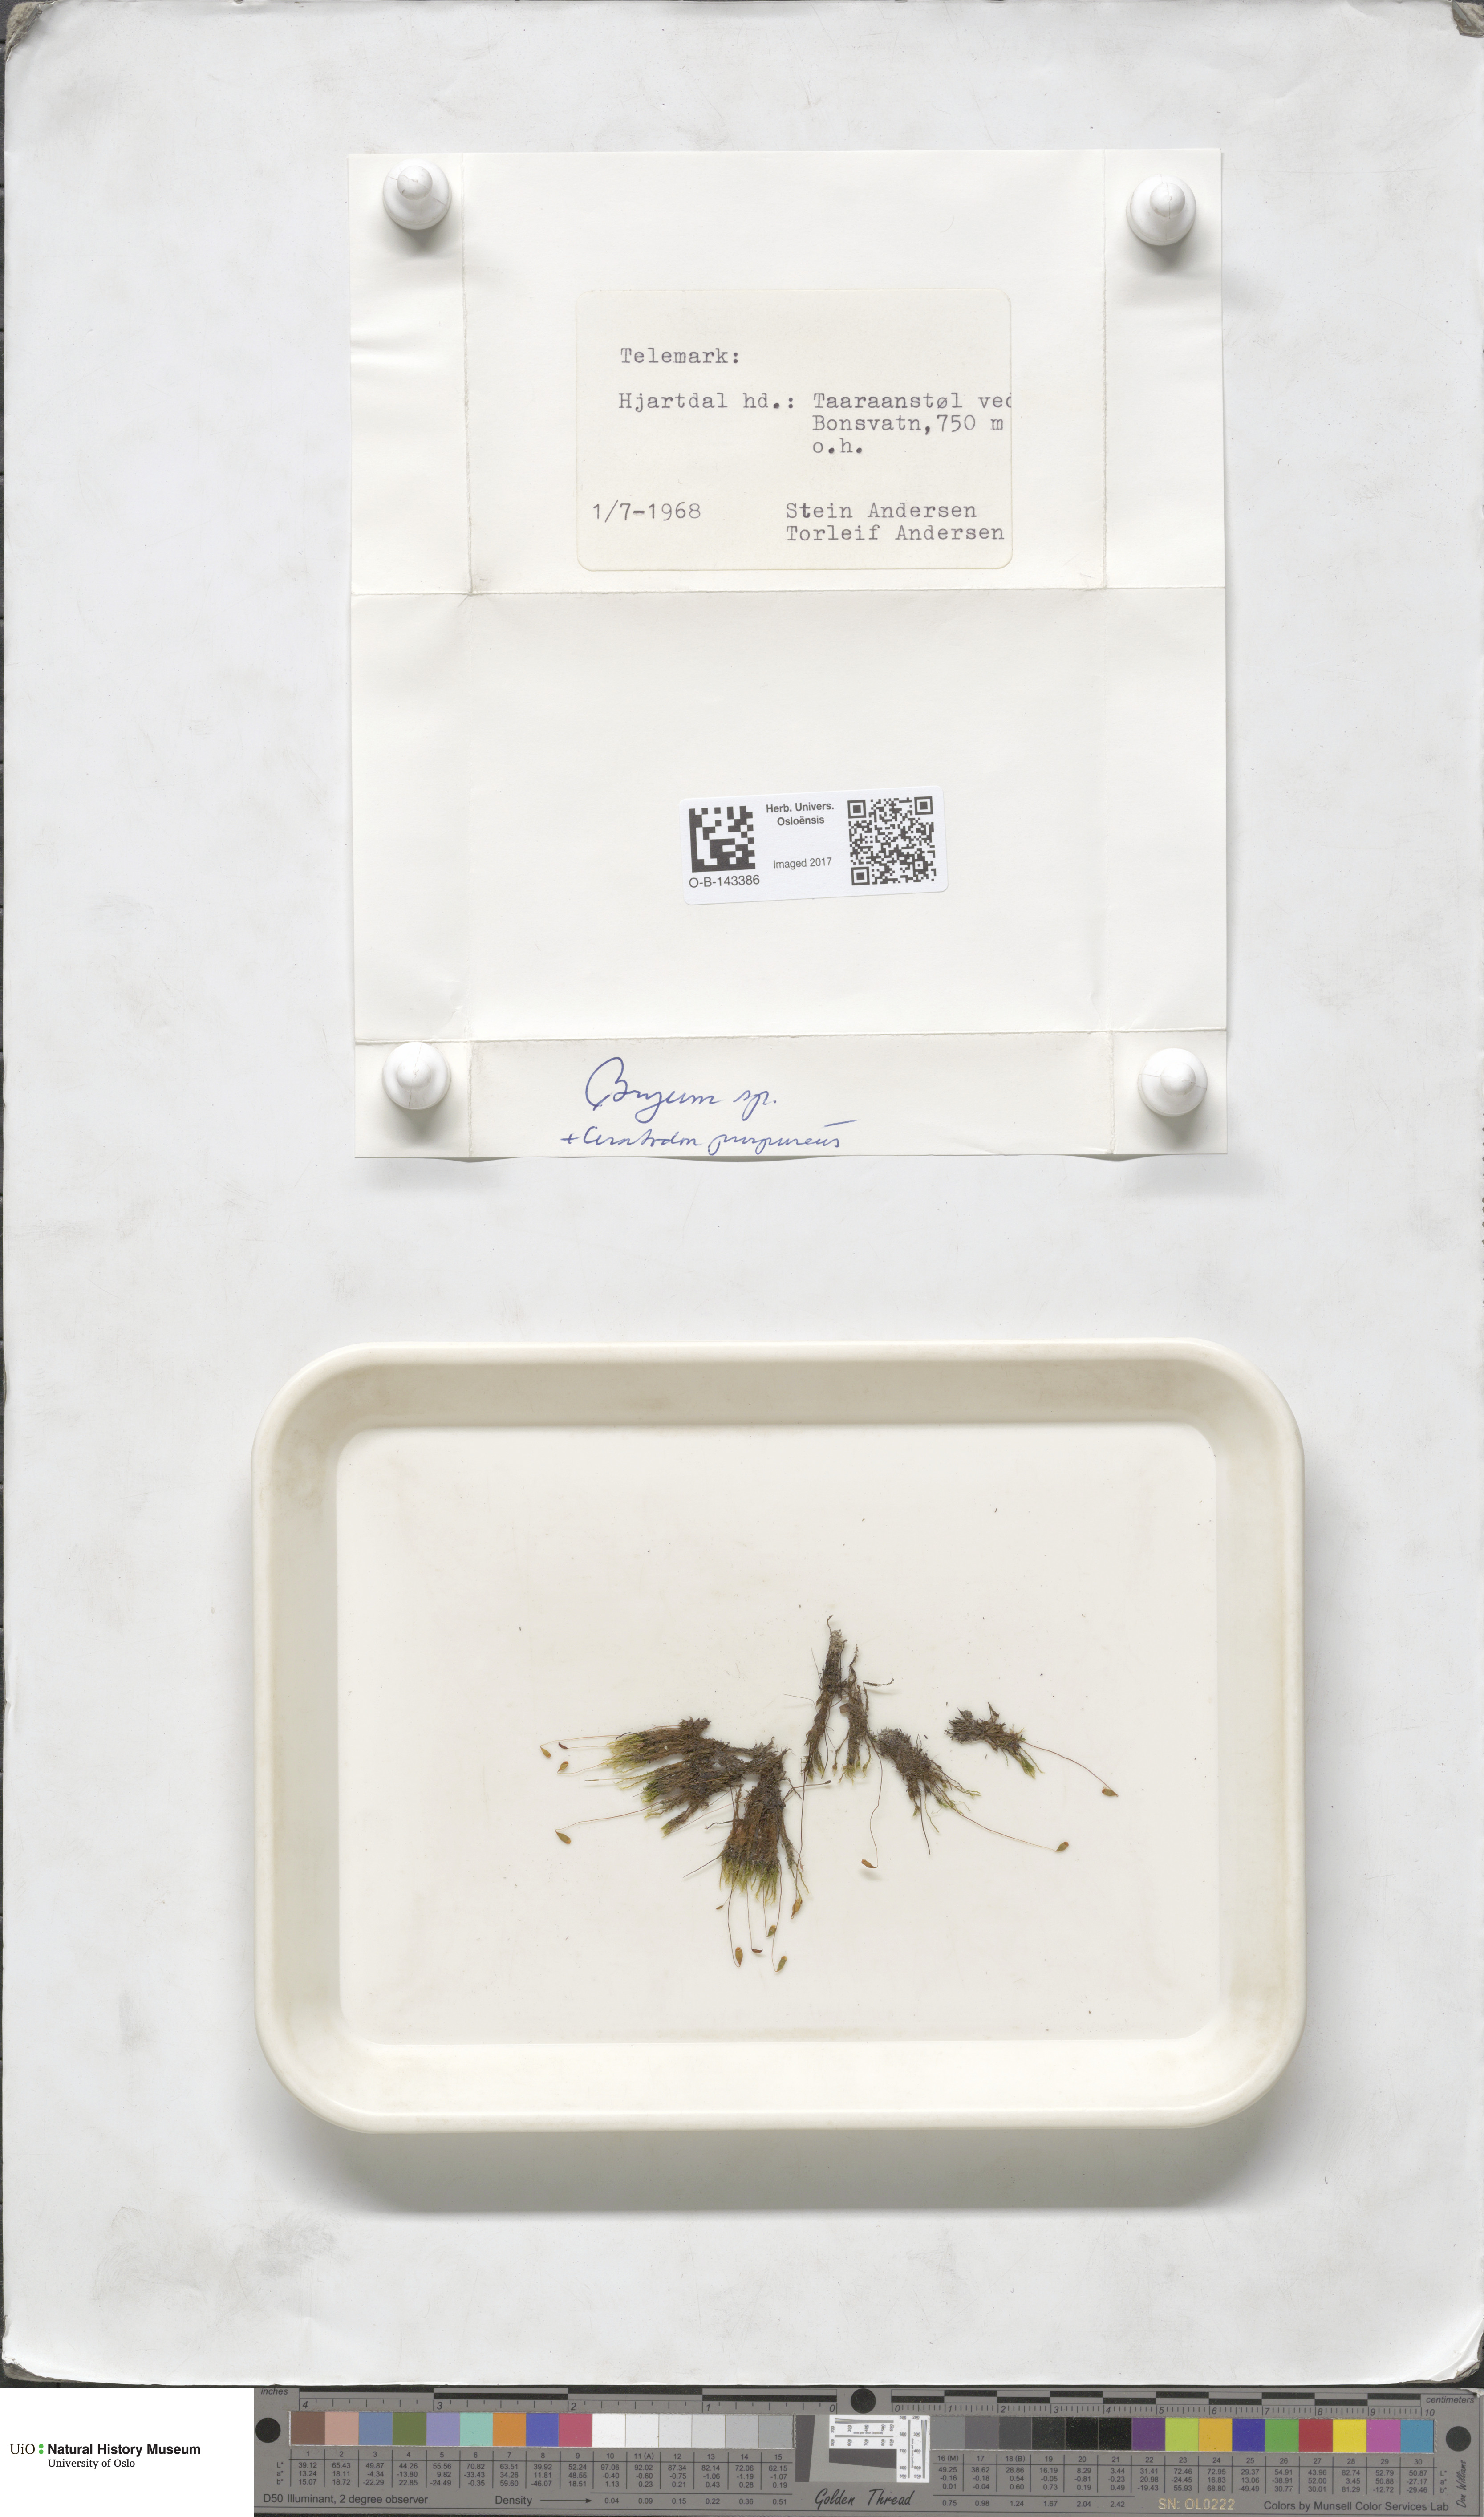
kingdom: Plantae
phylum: Bryophyta
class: Bryopsida
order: Bryales
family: Bryaceae
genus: Bryum
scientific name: Bryum
